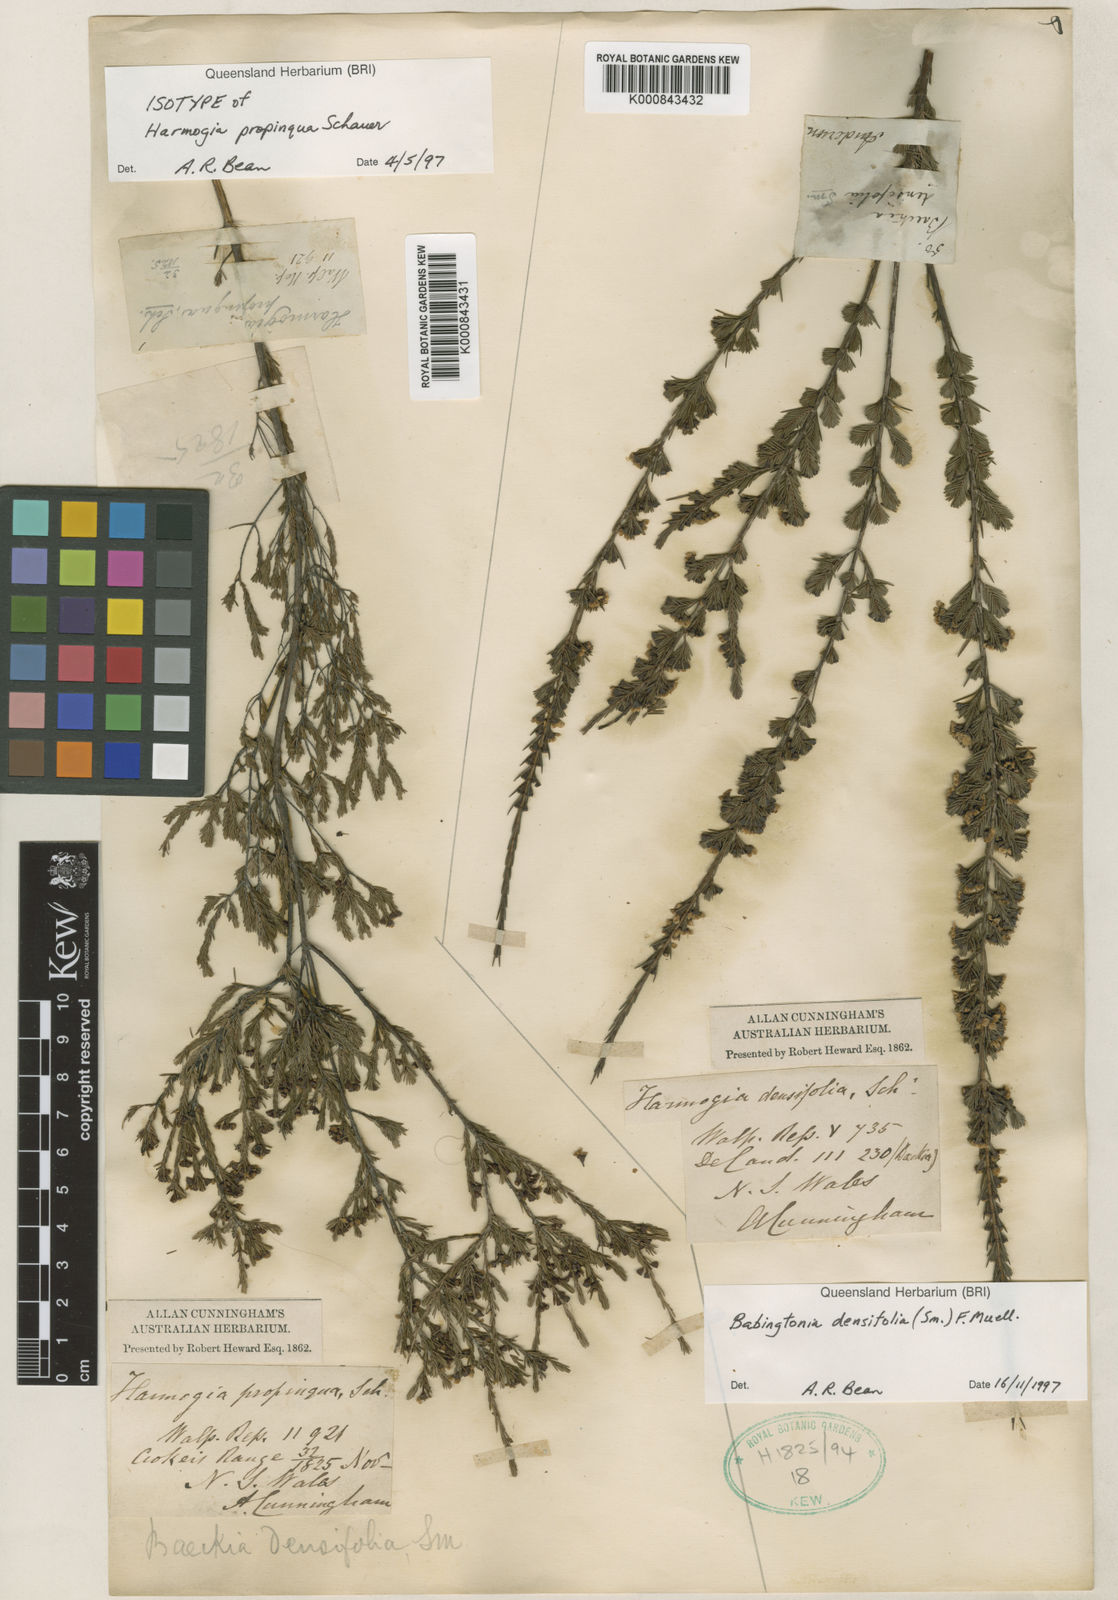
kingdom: Plantae
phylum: Tracheophyta
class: Magnoliopsida
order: Myrtales
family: Myrtaceae
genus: Harmogia
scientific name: Harmogia densifolia
